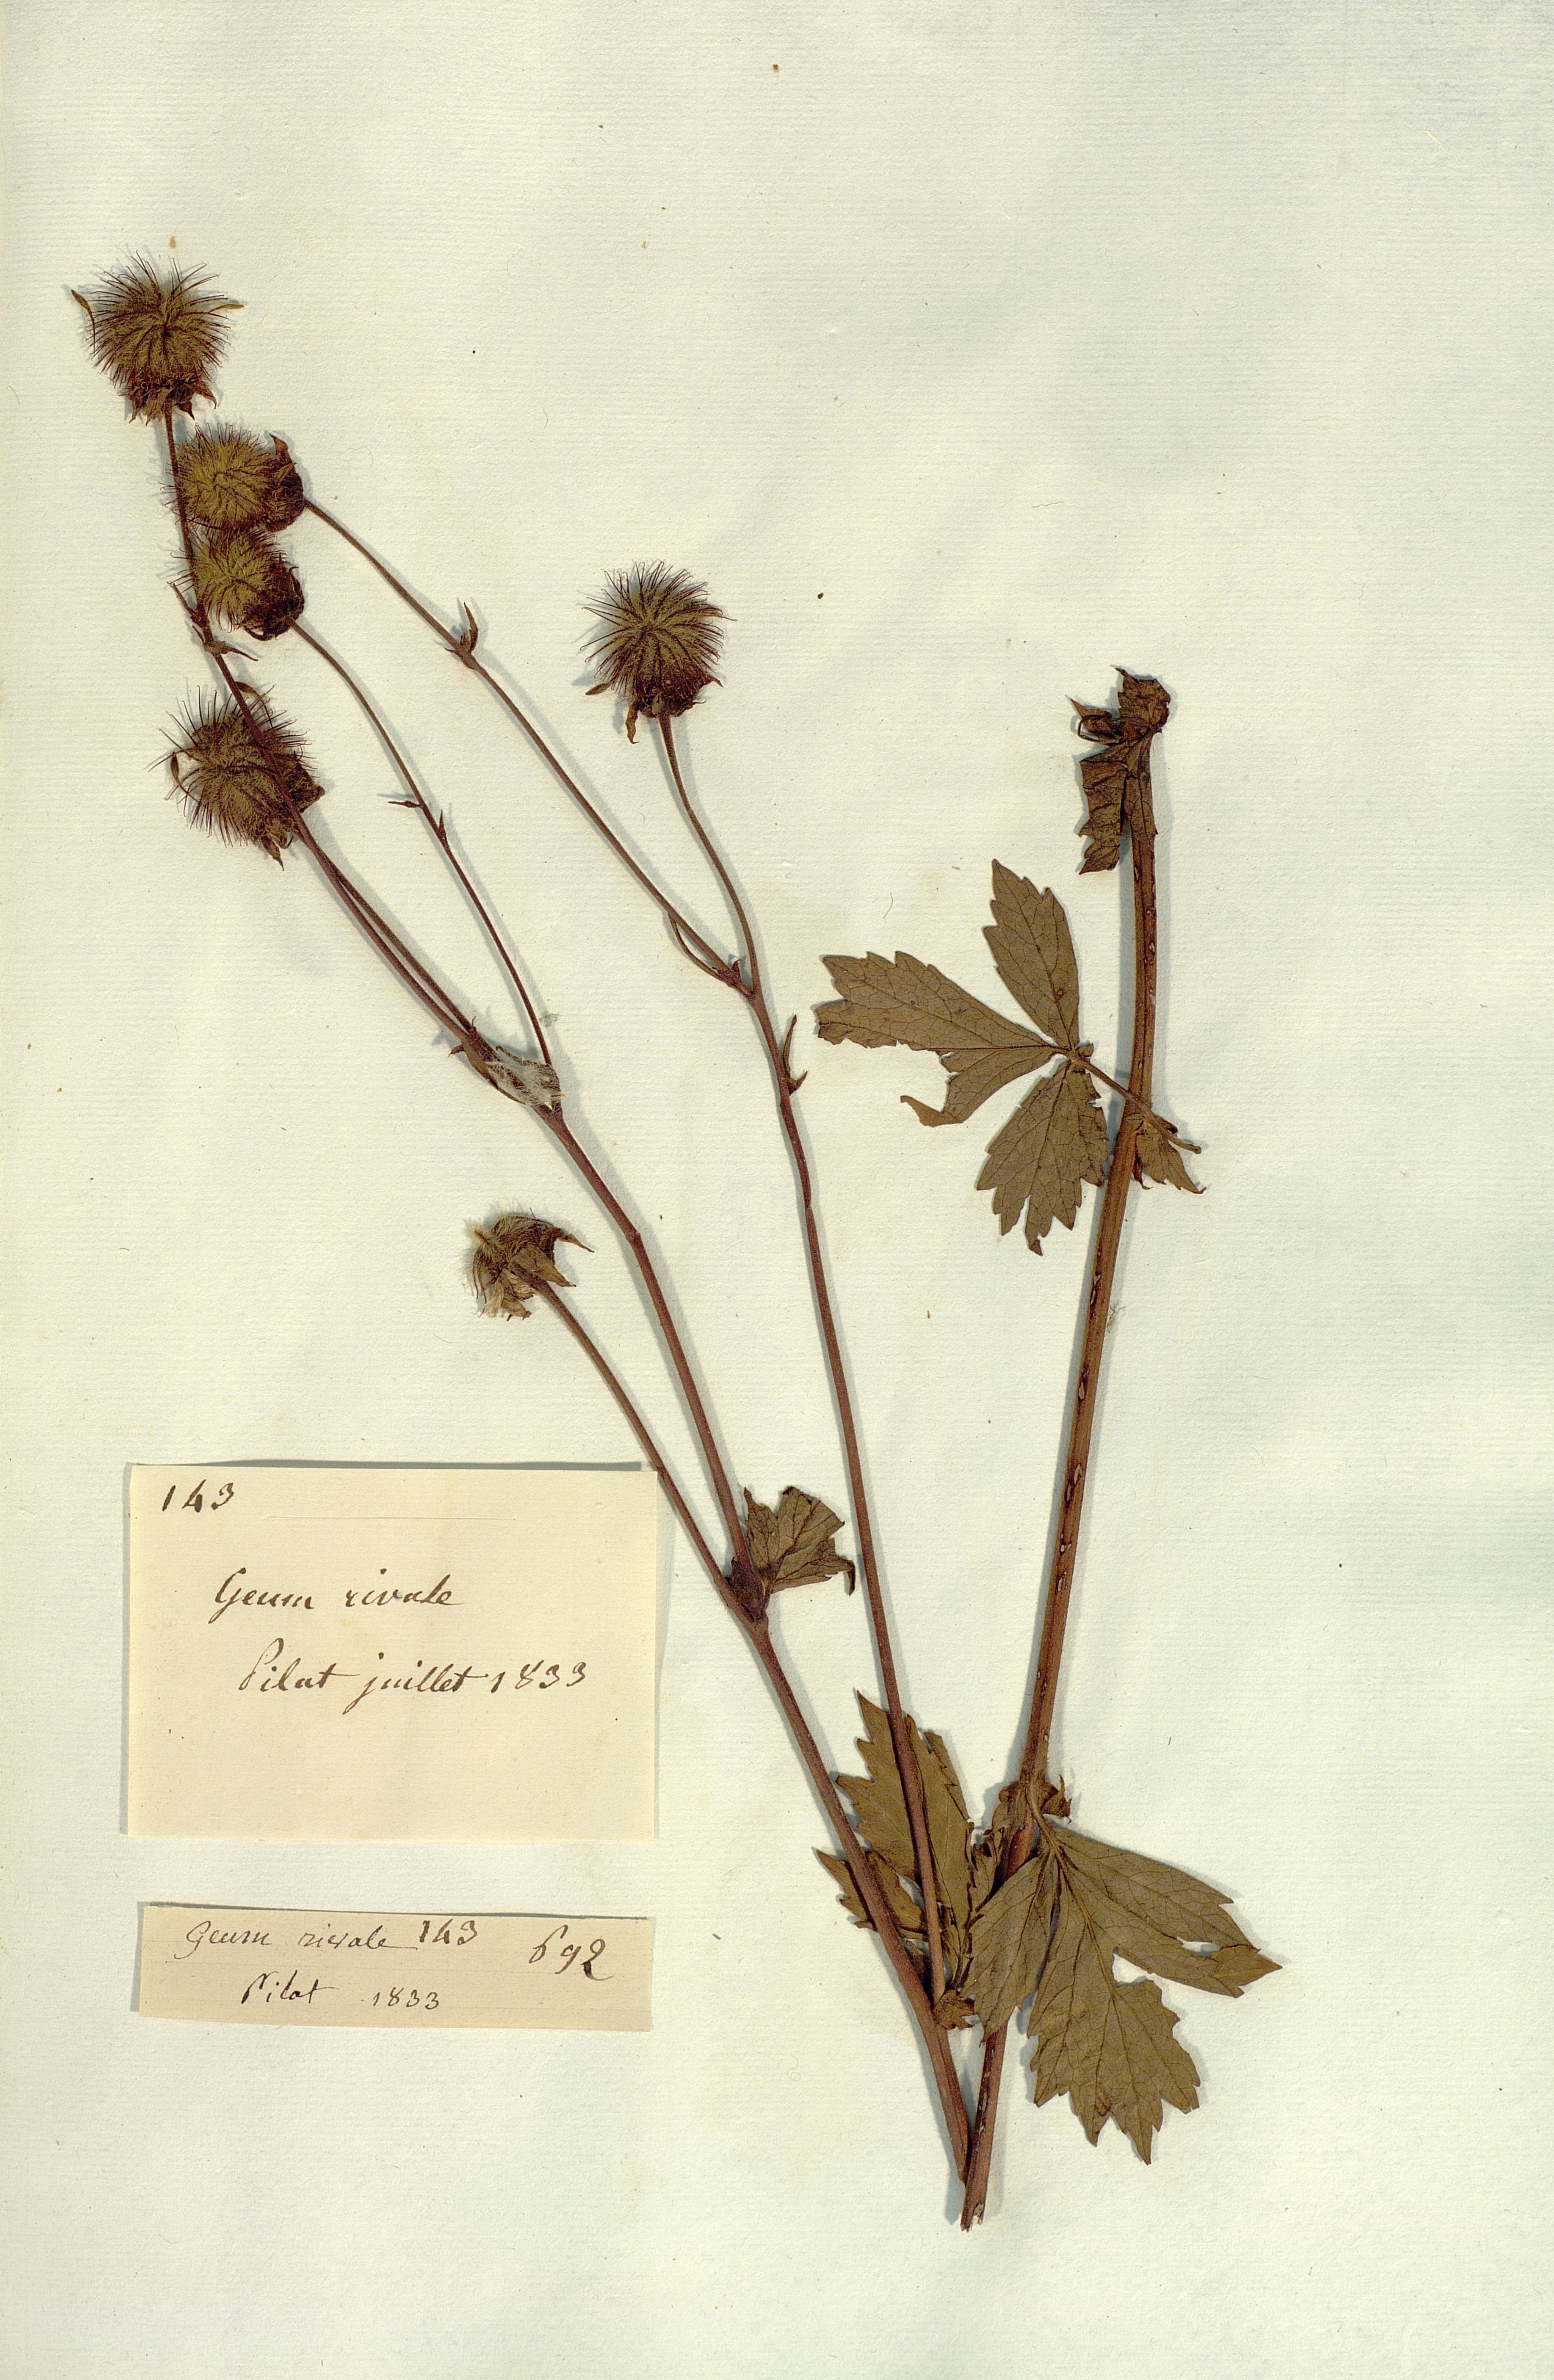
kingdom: Plantae
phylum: Tracheophyta
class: Magnoliopsida
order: Rosales
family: Rosaceae
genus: Geum
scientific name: Geum rivale
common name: Water avens
